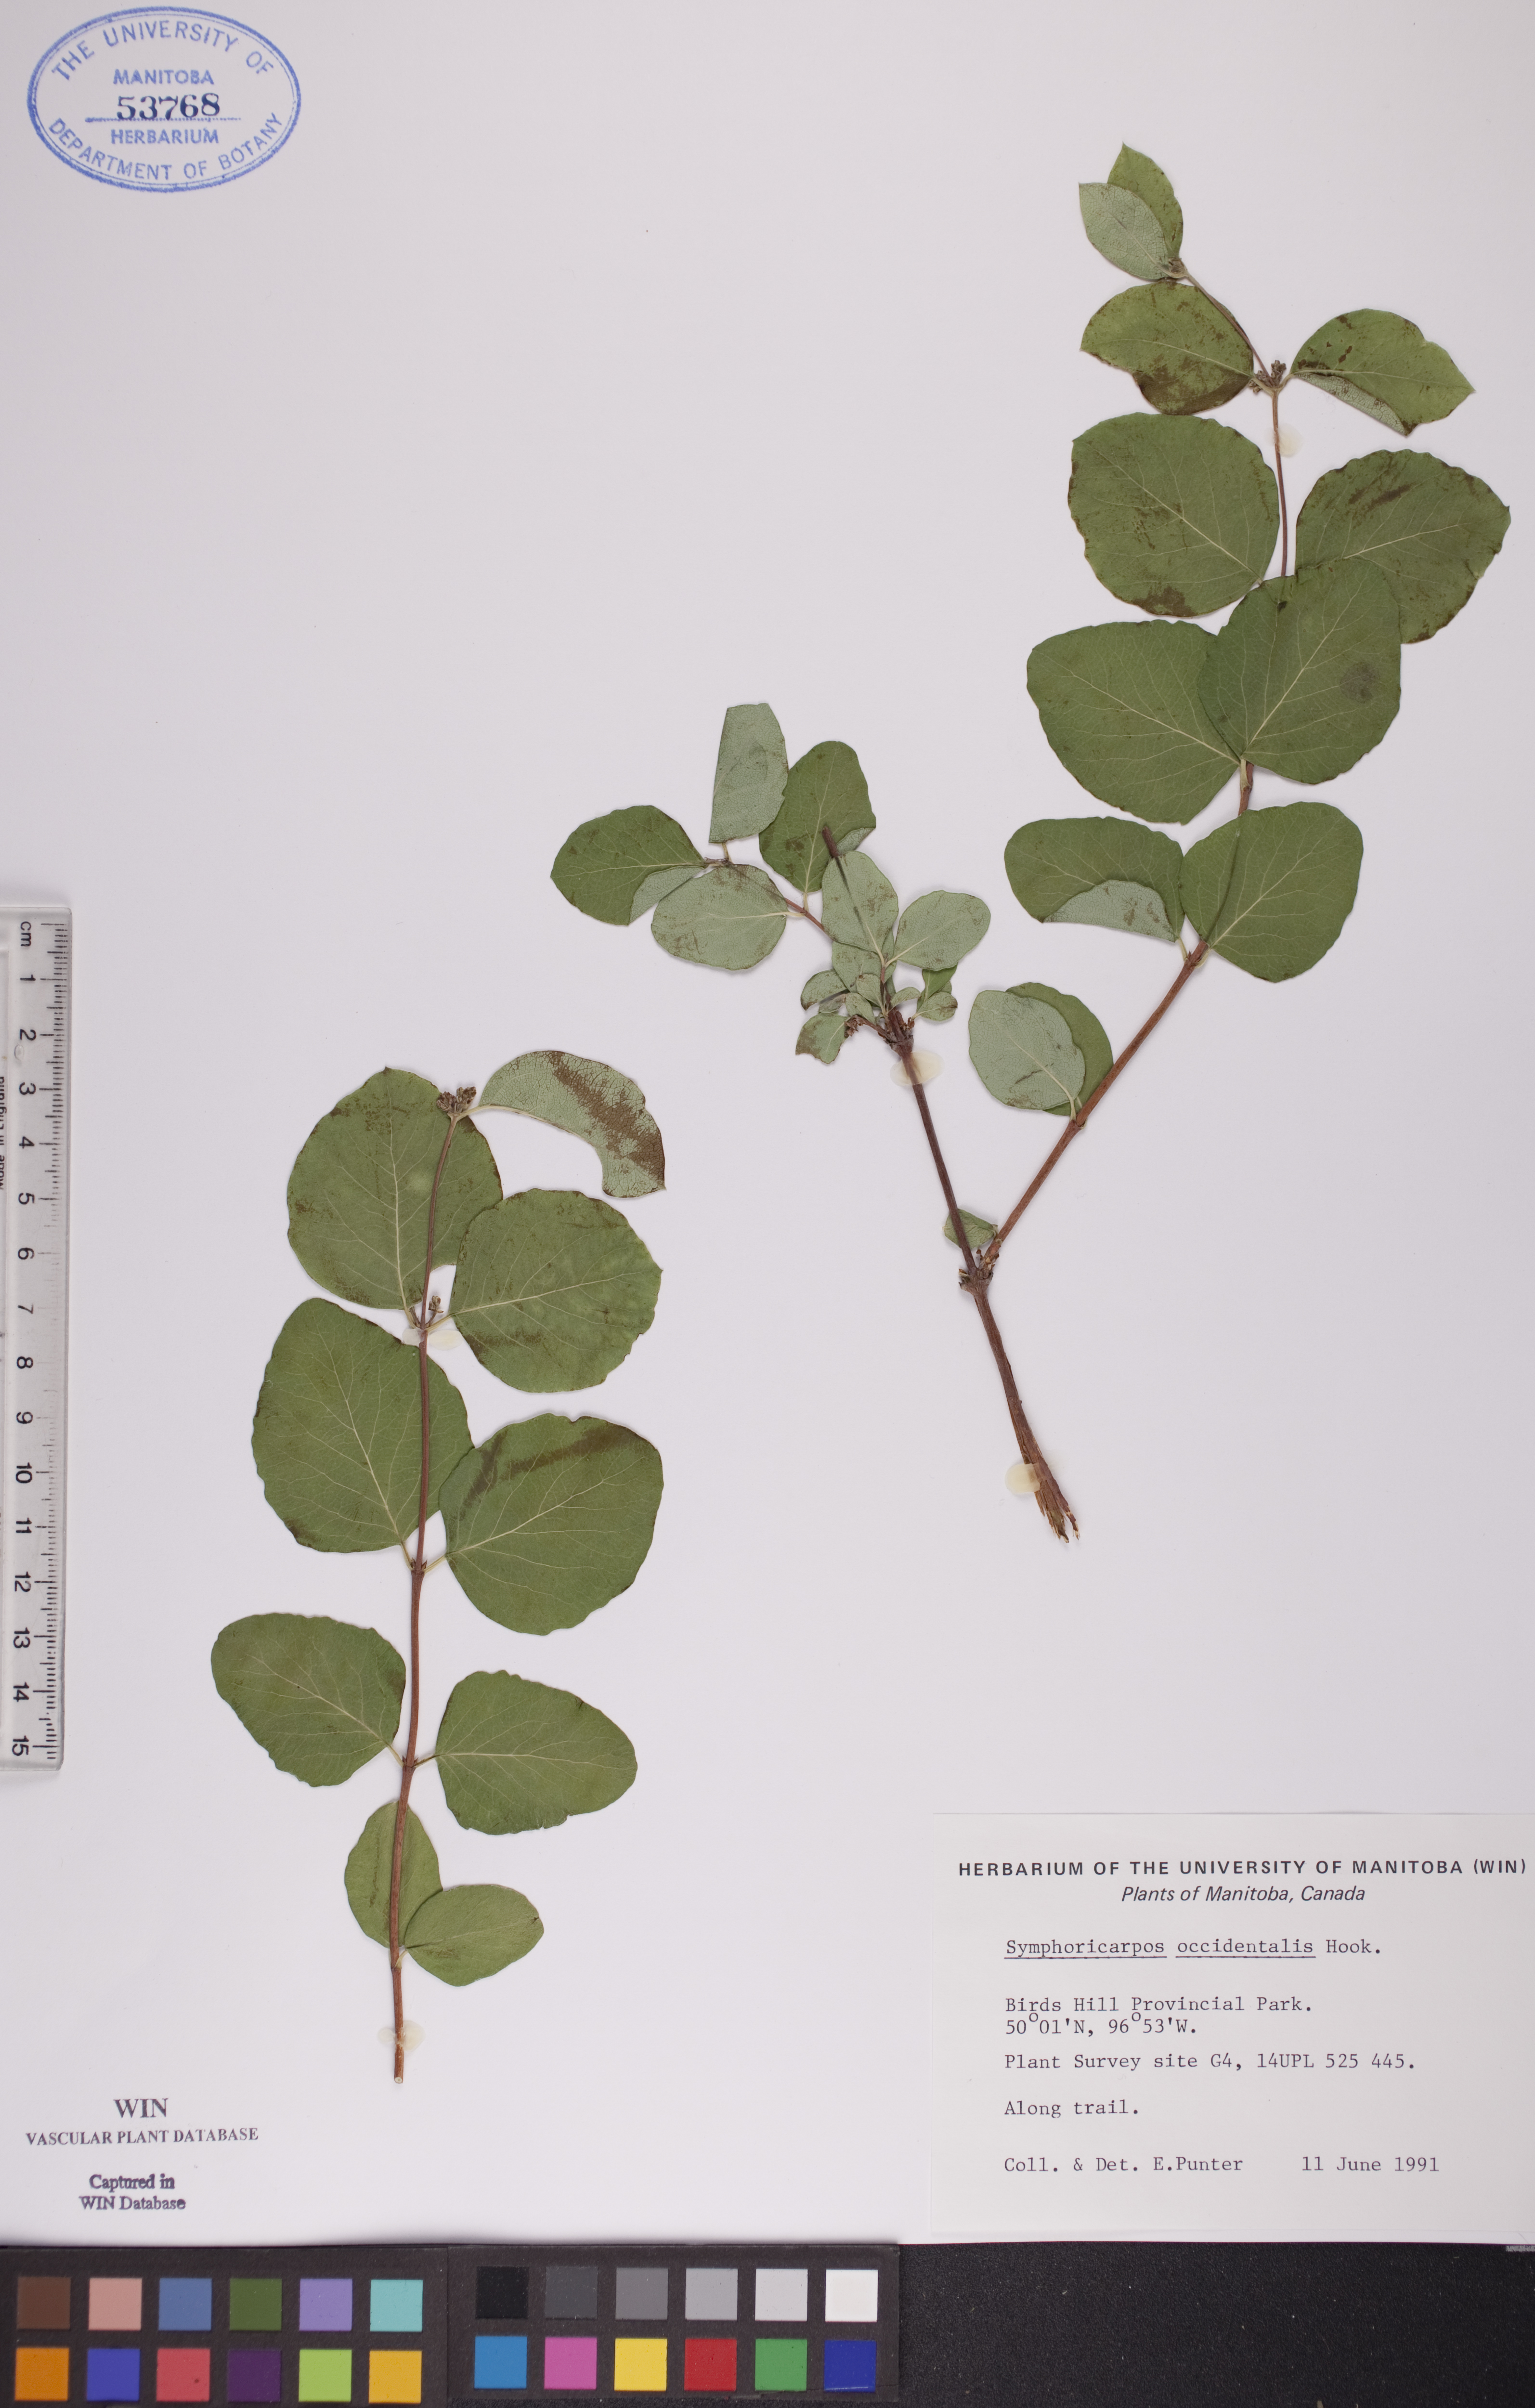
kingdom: Plantae
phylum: Tracheophyta
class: Magnoliopsida
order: Dipsacales
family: Caprifoliaceae
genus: Symphoricarpos
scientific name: Symphoricarpos occidentalis
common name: Wolfberry
